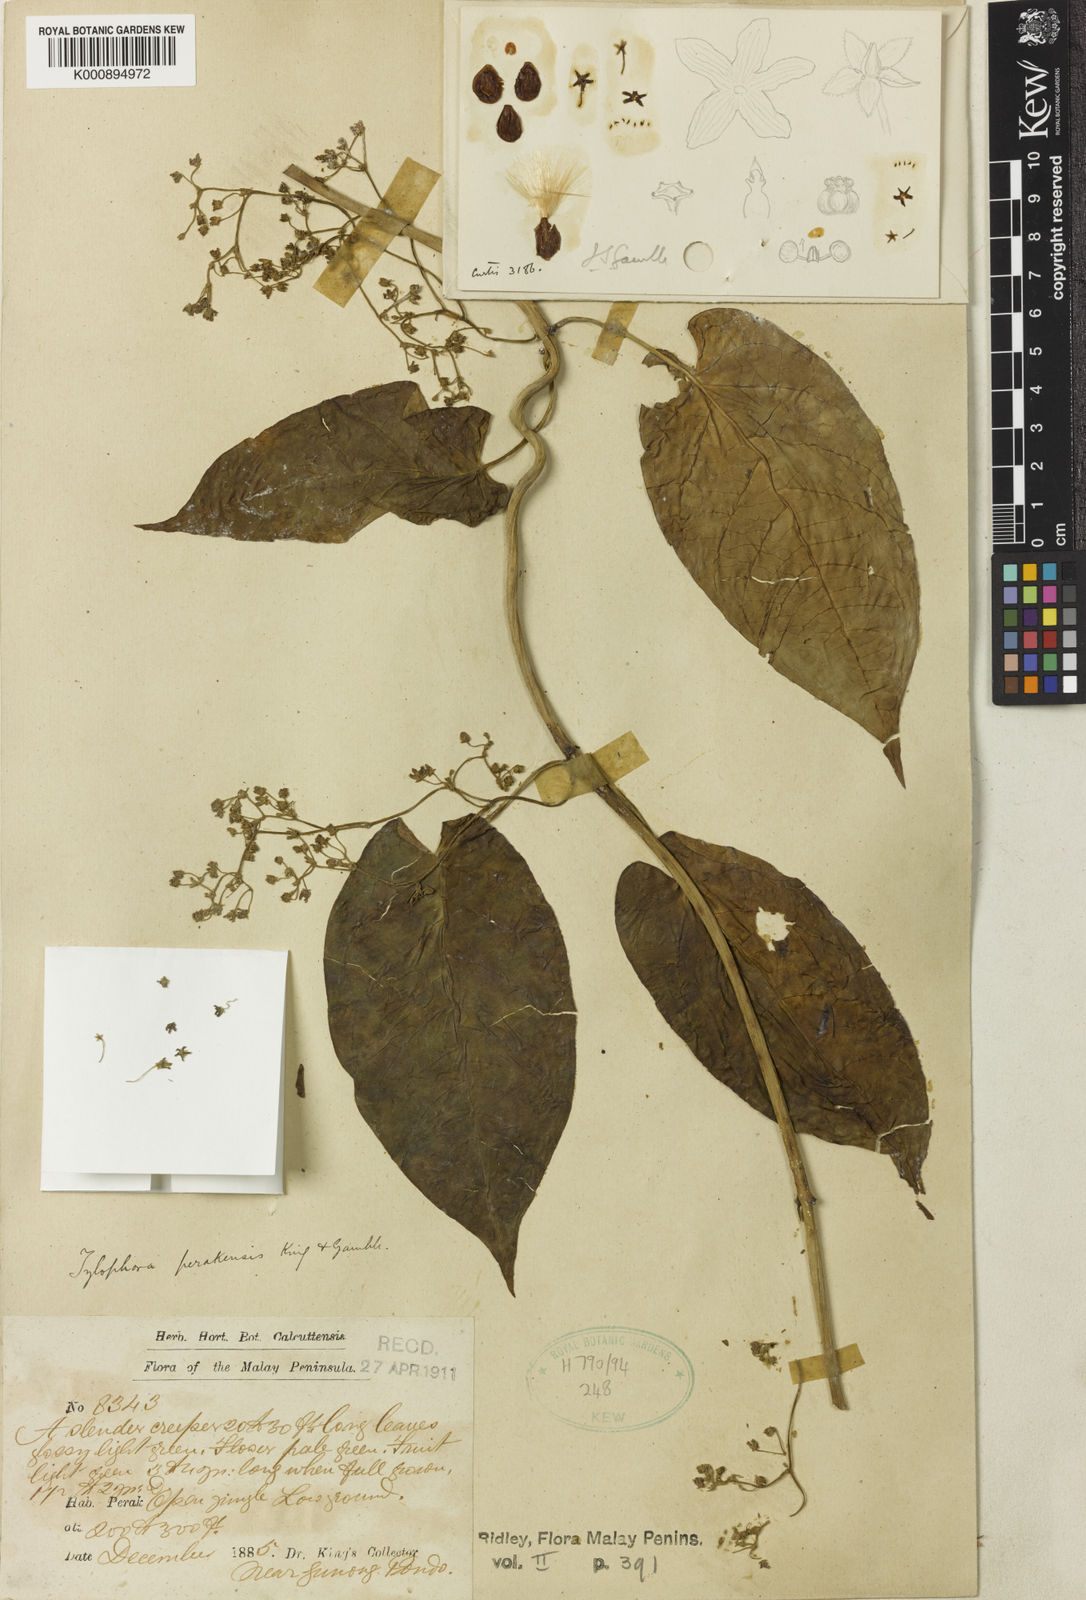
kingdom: Plantae
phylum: Tracheophyta
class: Magnoliopsida
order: Gentianales
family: Apocynaceae
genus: Vincetoxicum
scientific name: Vincetoxicum cissoides
